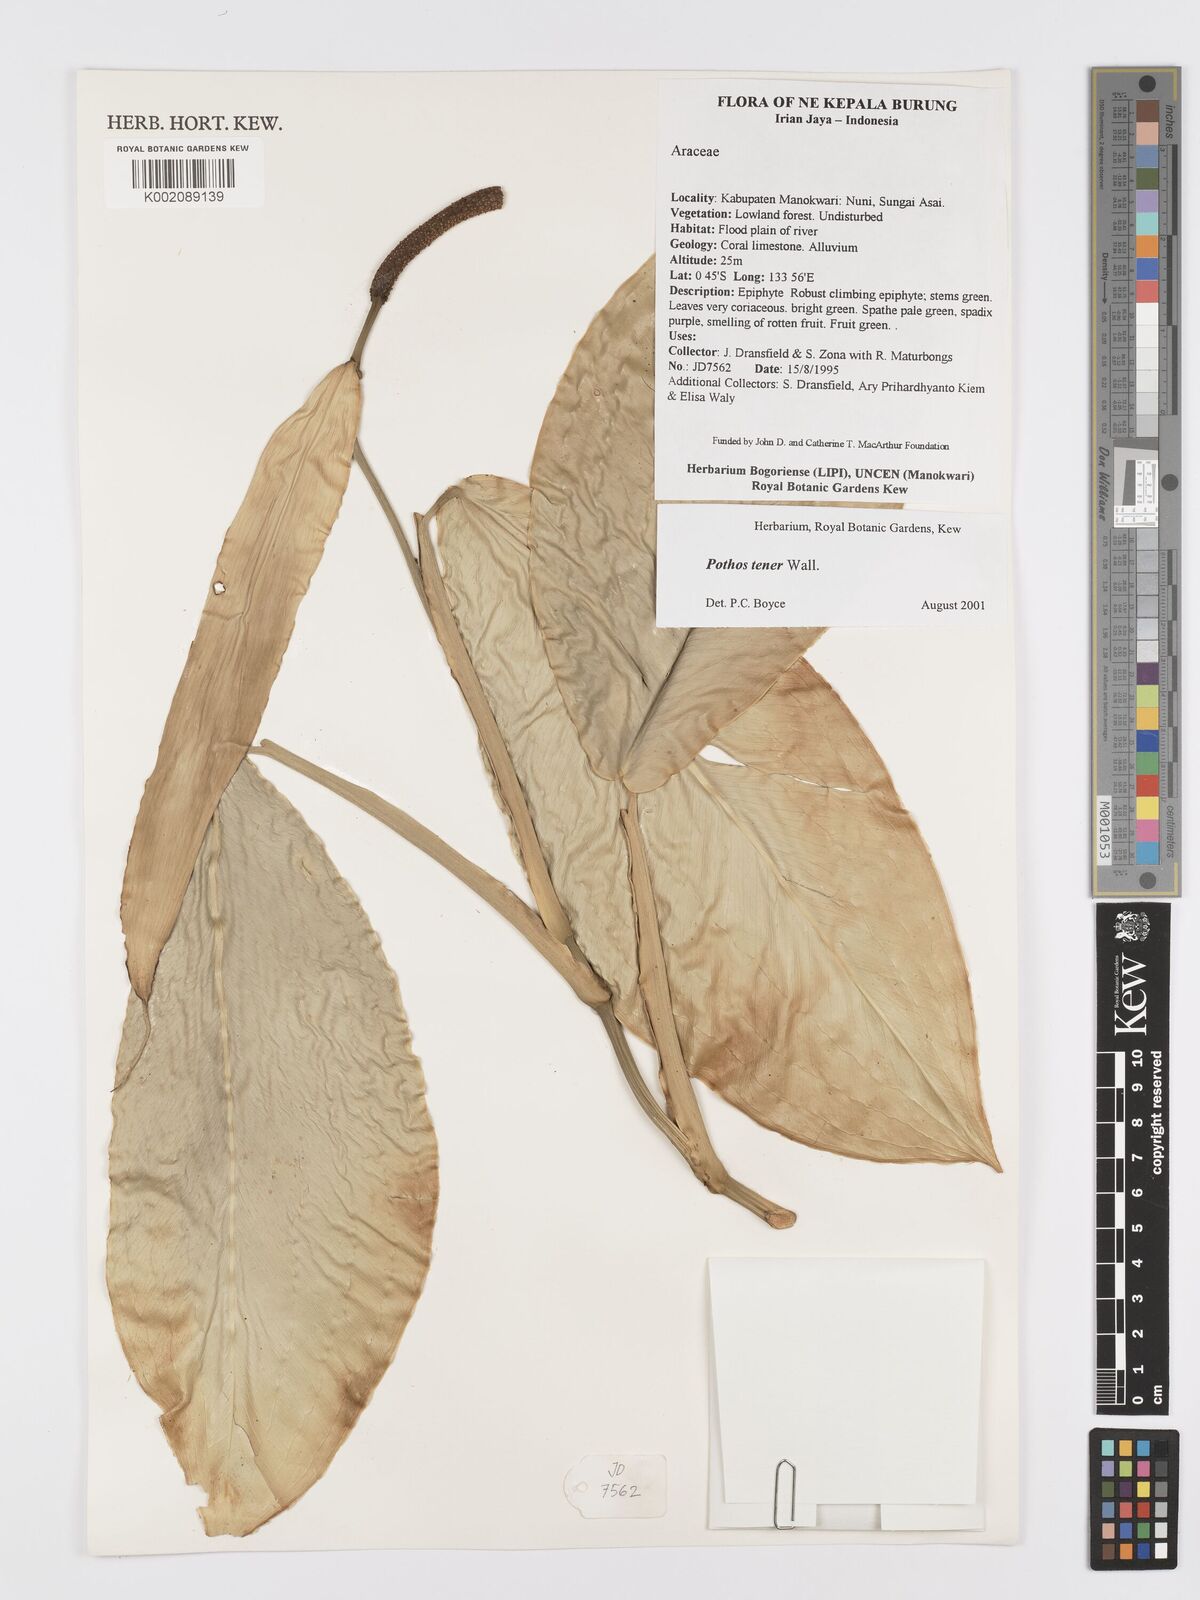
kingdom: Plantae
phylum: Tracheophyta
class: Liliopsida
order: Alismatales
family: Araceae
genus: Pothos
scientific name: Pothos tener
